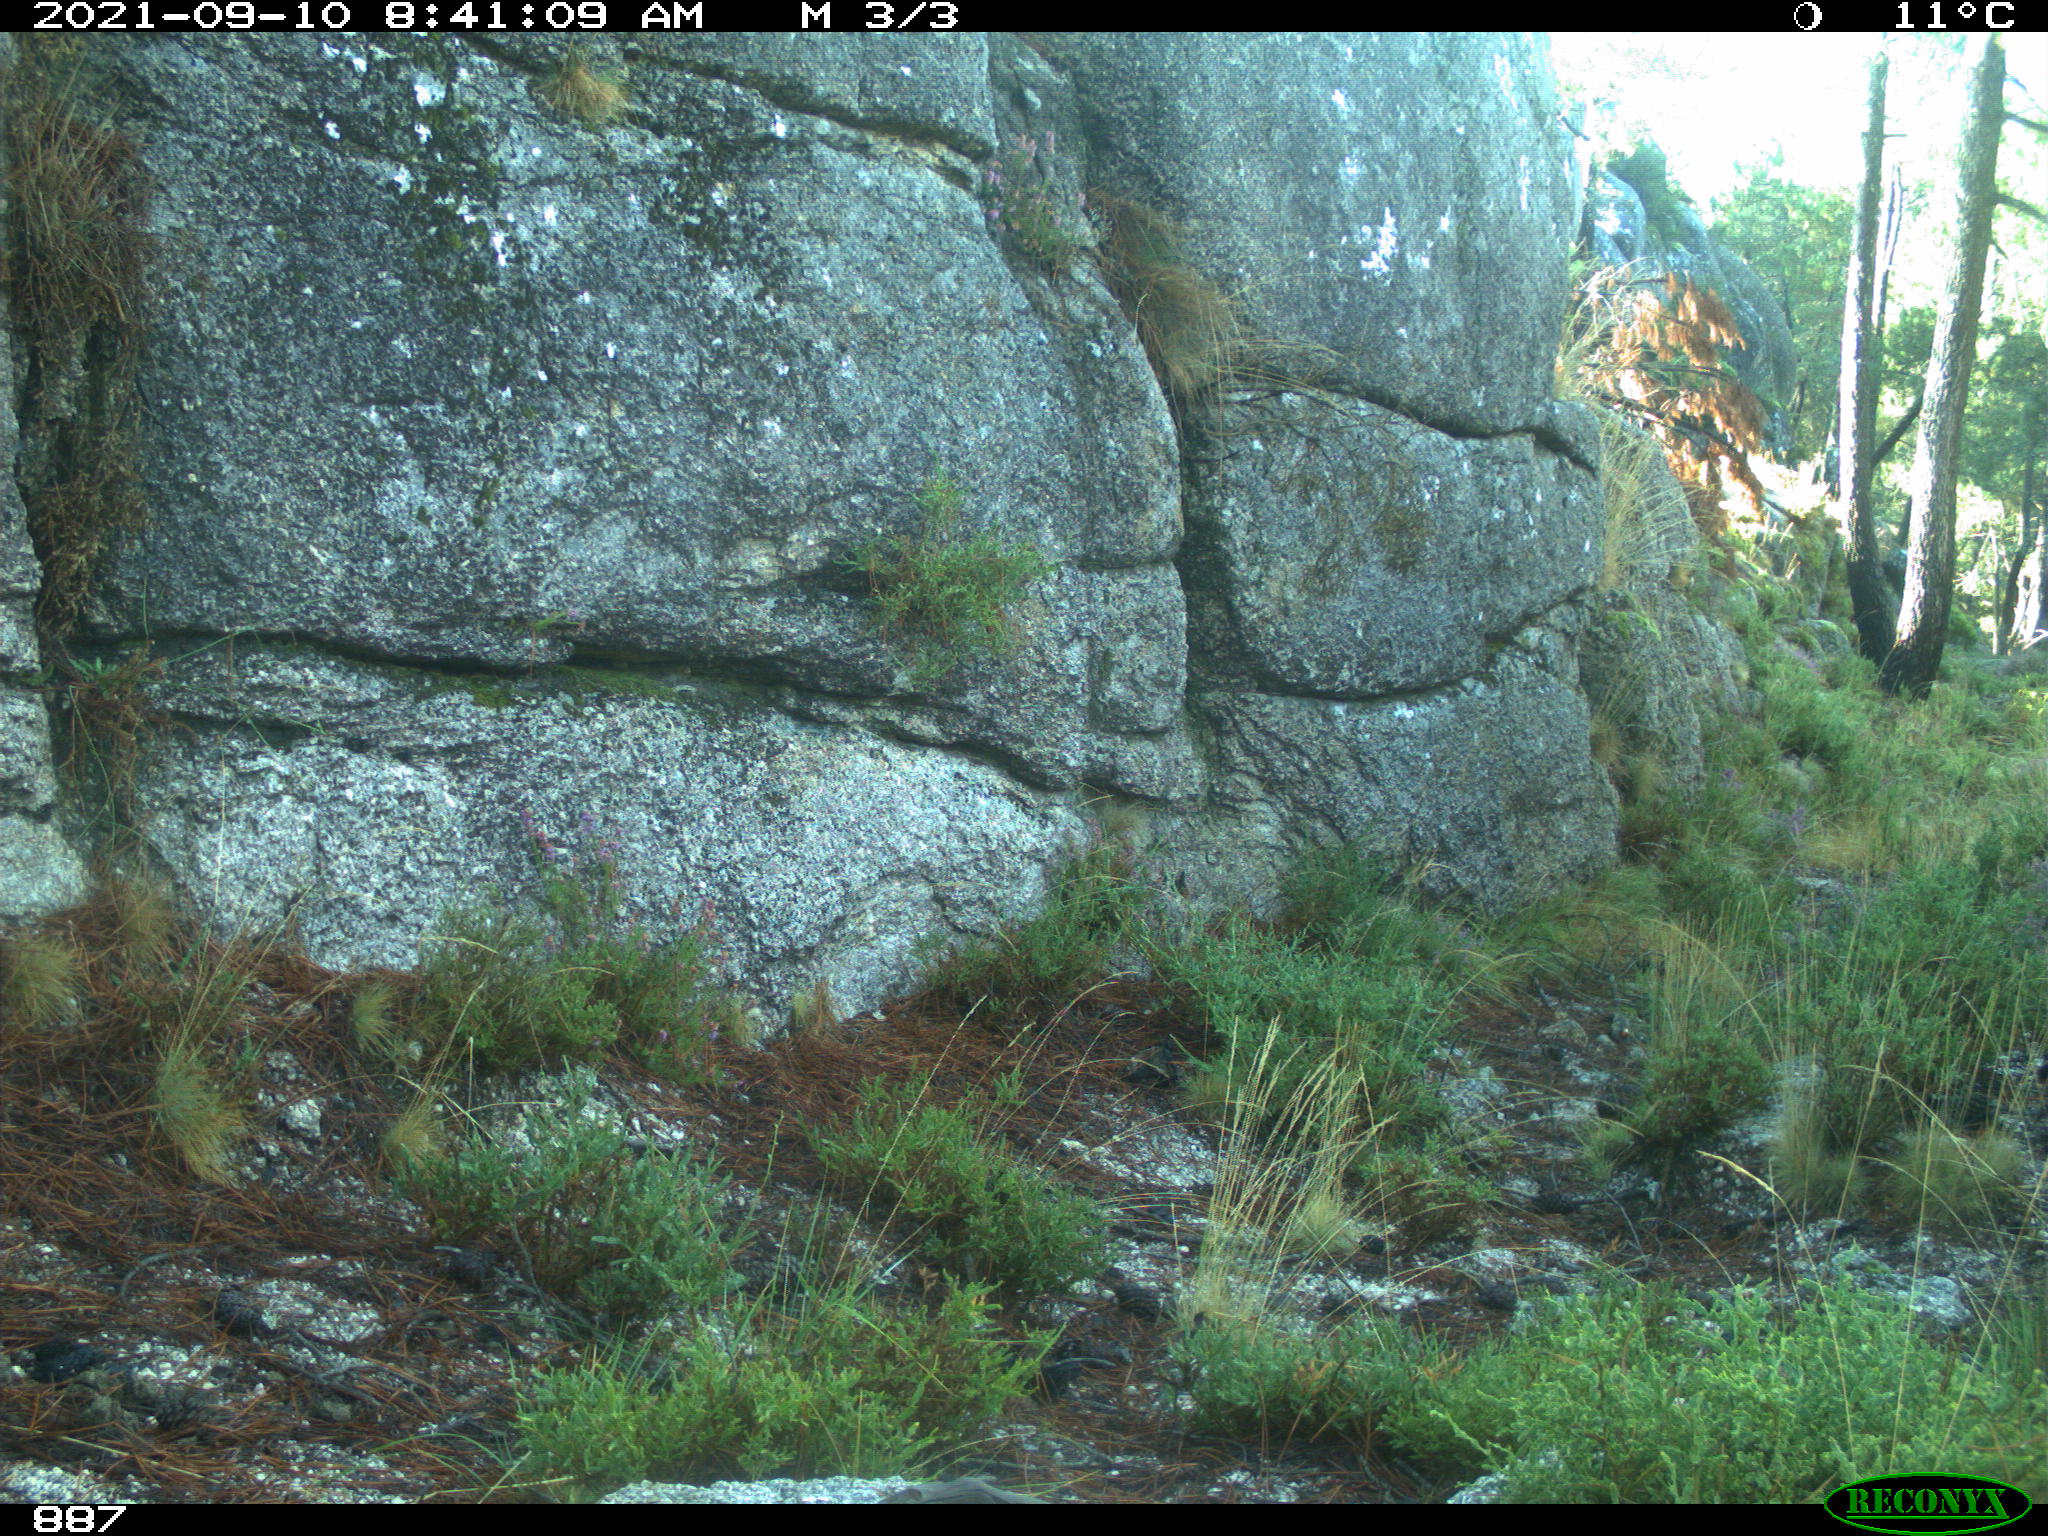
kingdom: Animalia
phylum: Chordata
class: Mammalia
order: Perissodactyla
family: Equidae
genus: Equus
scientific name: Equus caballus
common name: Horse
